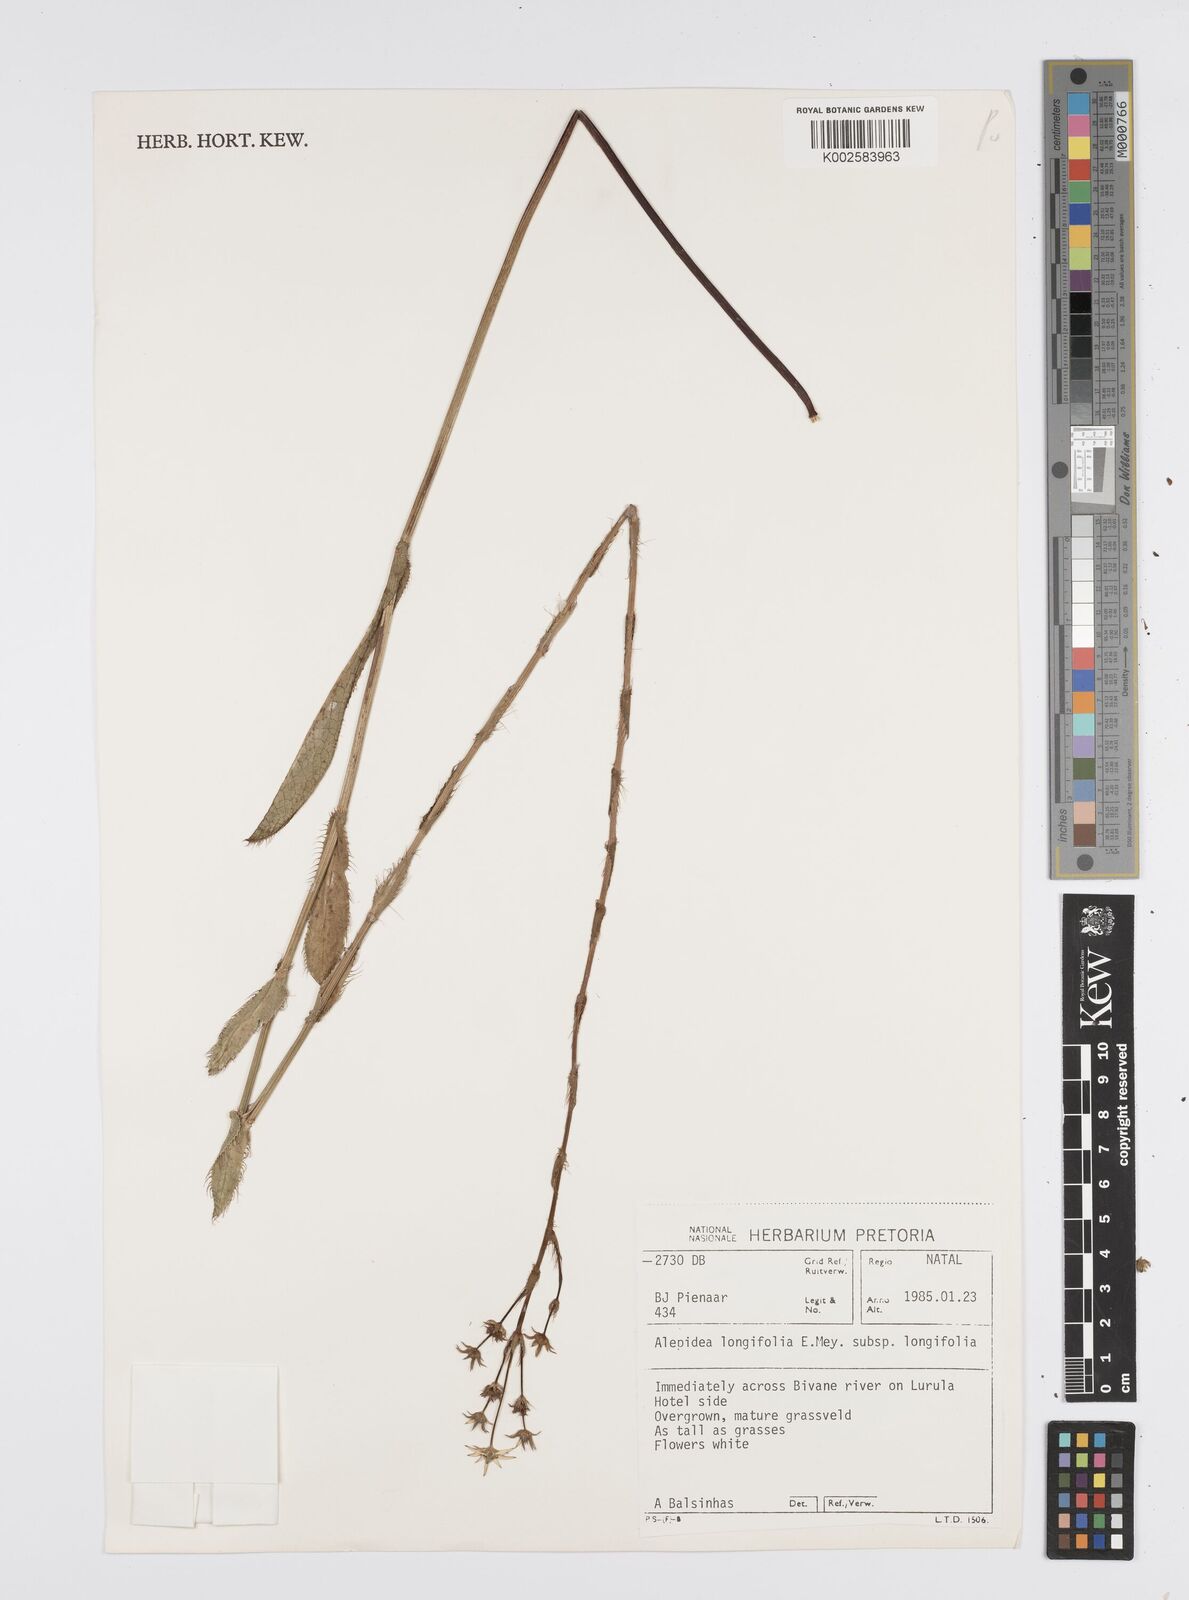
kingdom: Plantae
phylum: Tracheophyta
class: Magnoliopsida
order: Apiales
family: Apiaceae
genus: Alepidea
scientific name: Alepidea
